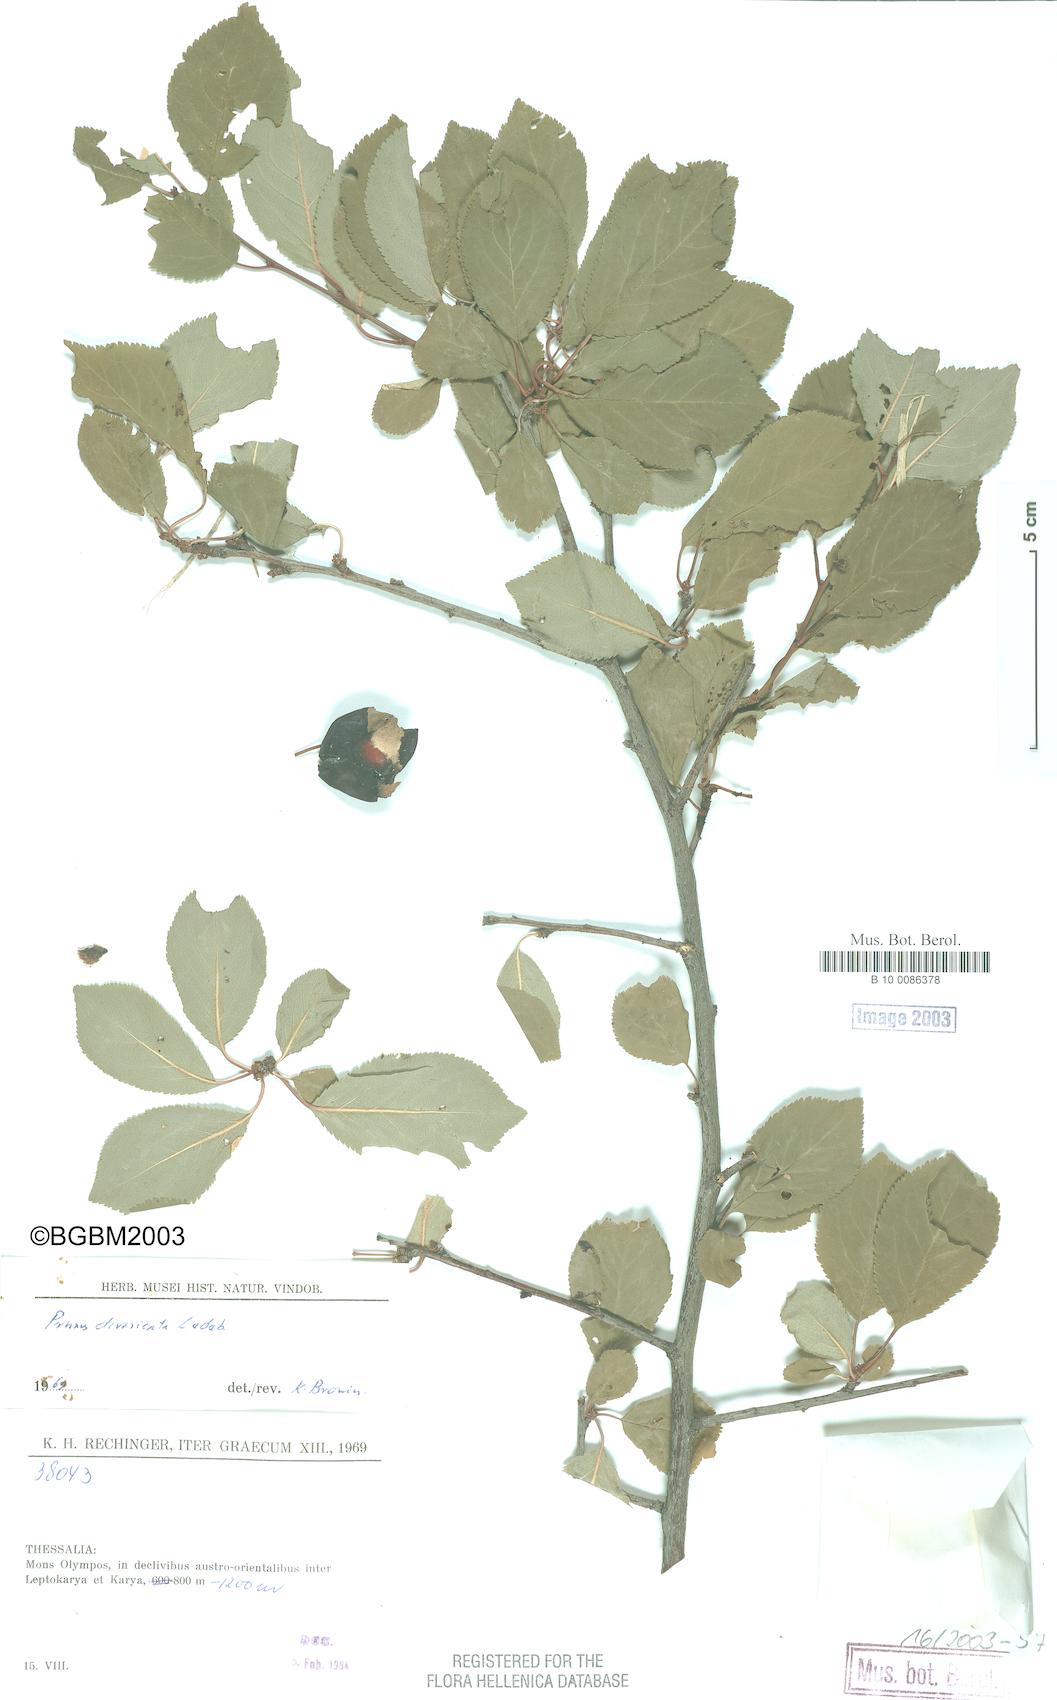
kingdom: Plantae
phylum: Tracheophyta
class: Magnoliopsida
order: Rosales
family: Rosaceae
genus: Prunus
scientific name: Prunus cerasifera
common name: Cherry plum
